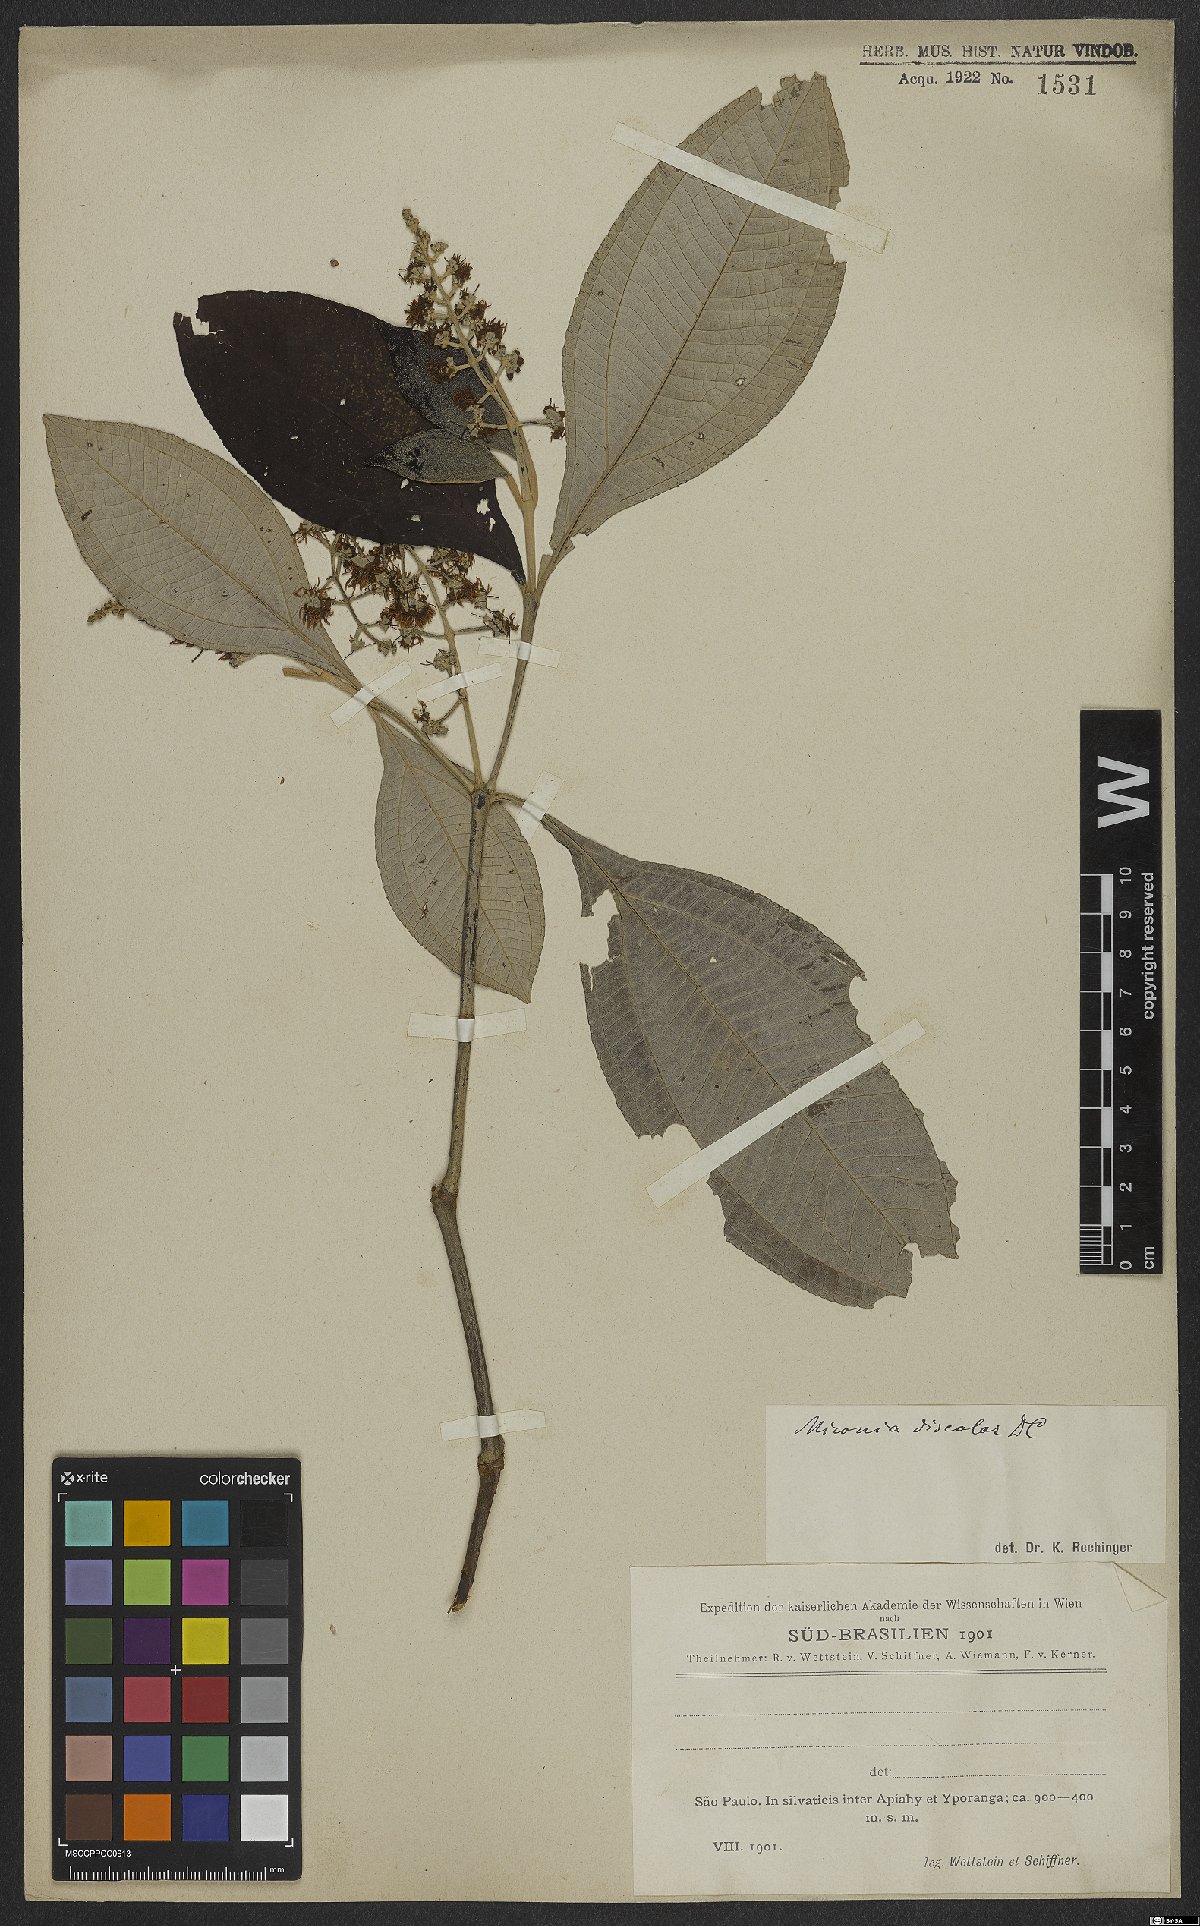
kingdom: Plantae
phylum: Tracheophyta
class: Magnoliopsida
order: Myrtales
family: Melastomataceae
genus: Miconia
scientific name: Miconia discolor
